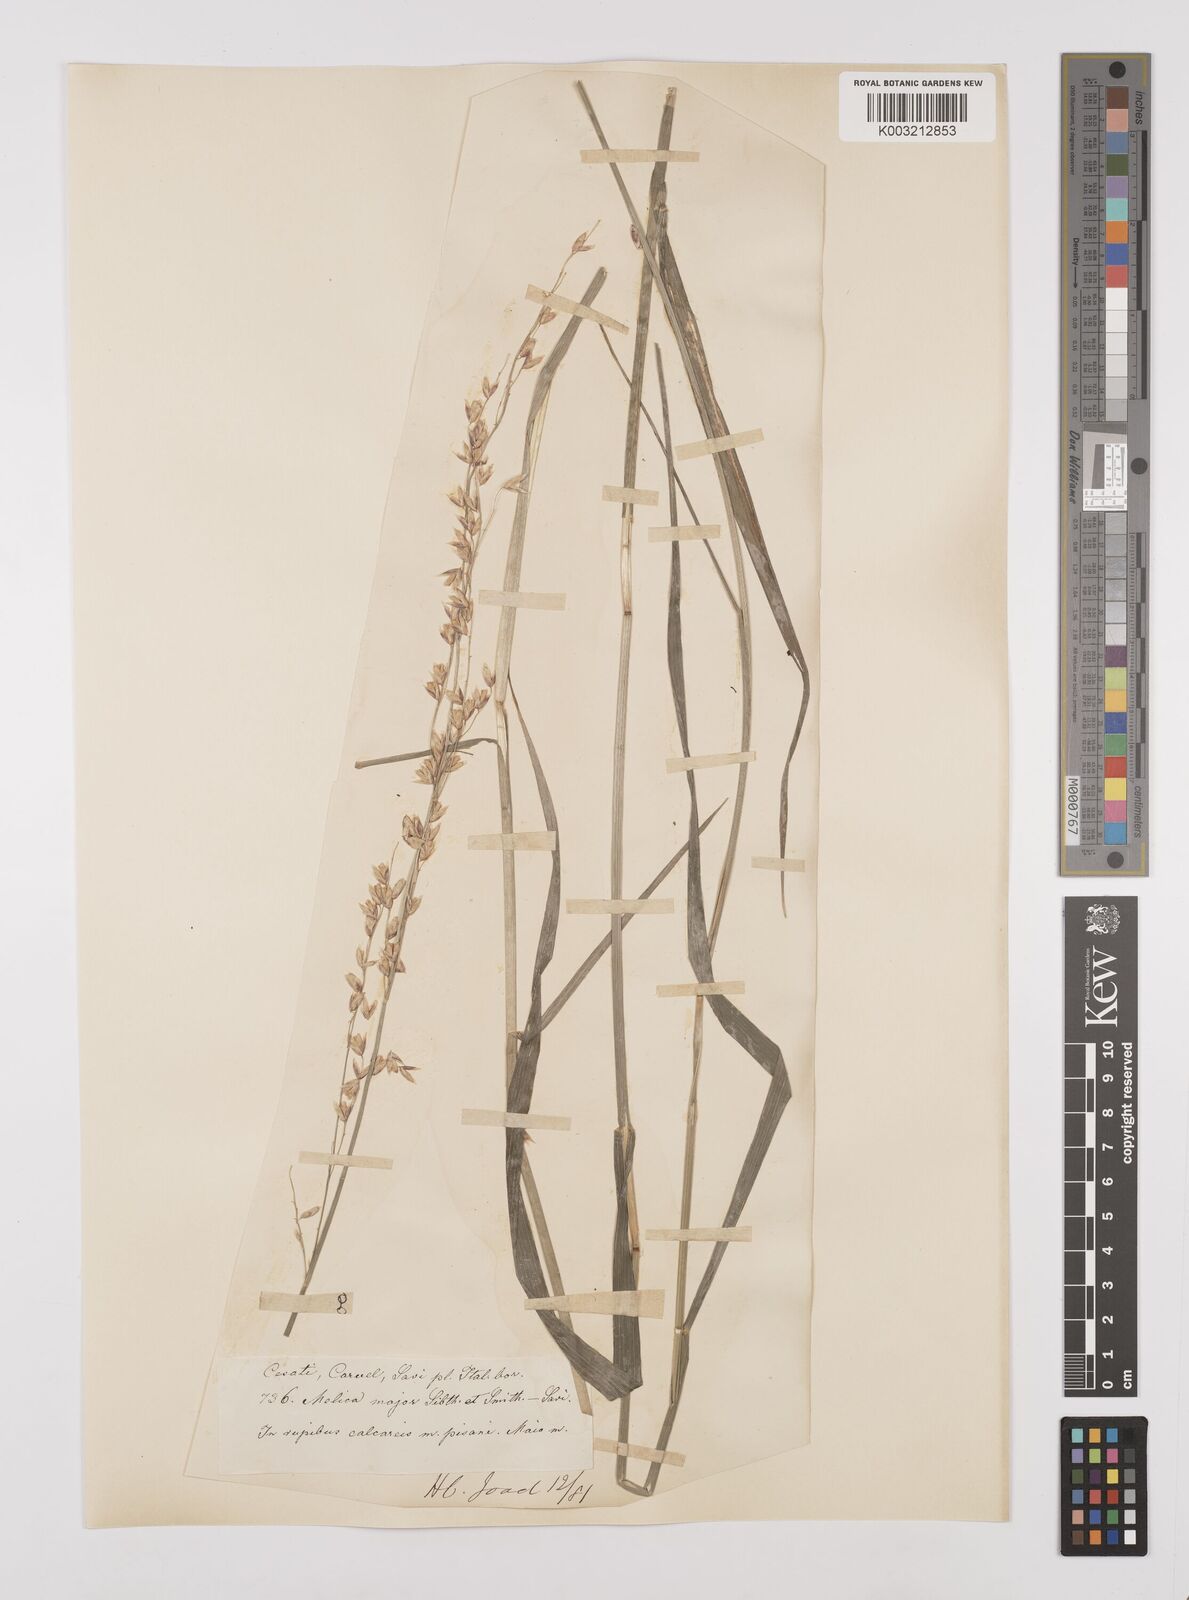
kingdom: Plantae
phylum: Tracheophyta
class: Liliopsida
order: Poales
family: Poaceae
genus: Melica
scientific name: Melica minuta
